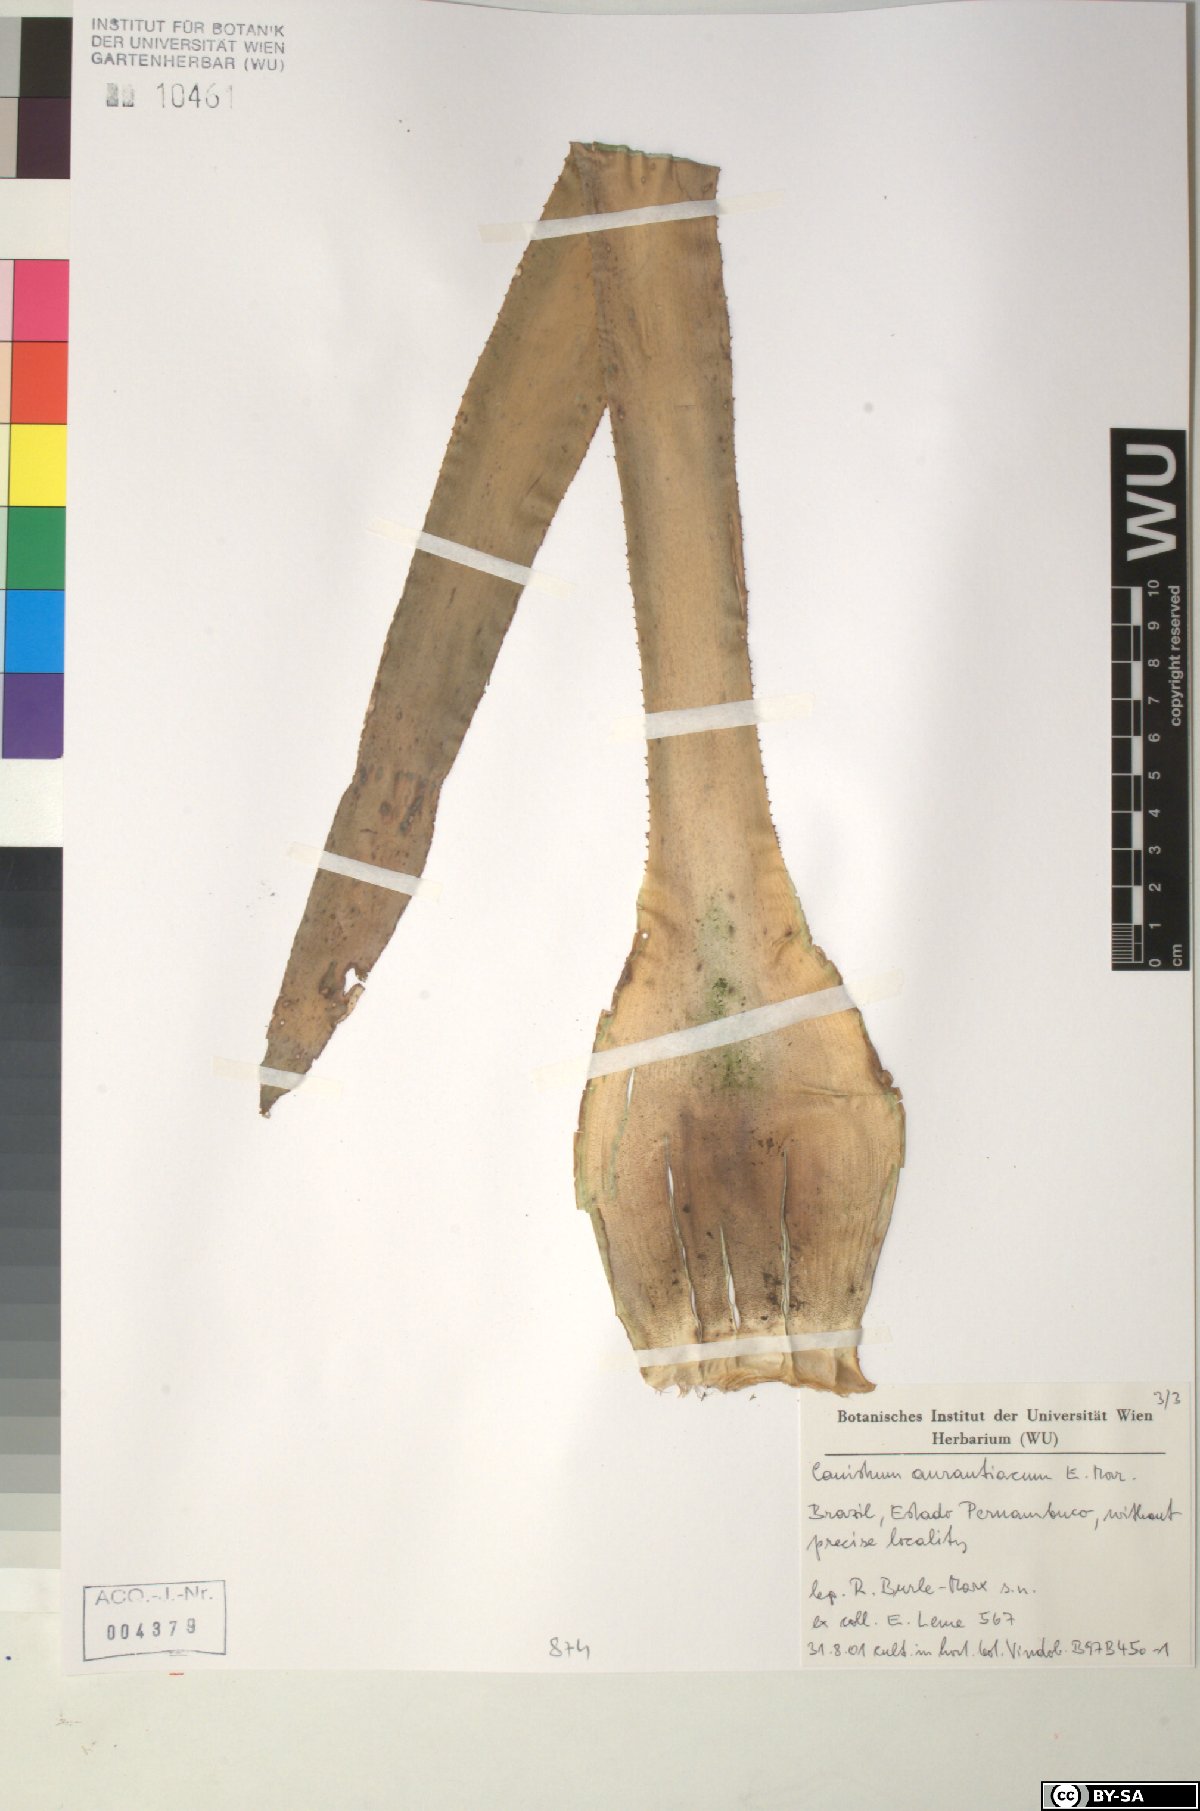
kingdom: Plantae
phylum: Tracheophyta
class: Liliopsida
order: Poales
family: Bromeliaceae
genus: Canistrum
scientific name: Canistrum aurantiacum
